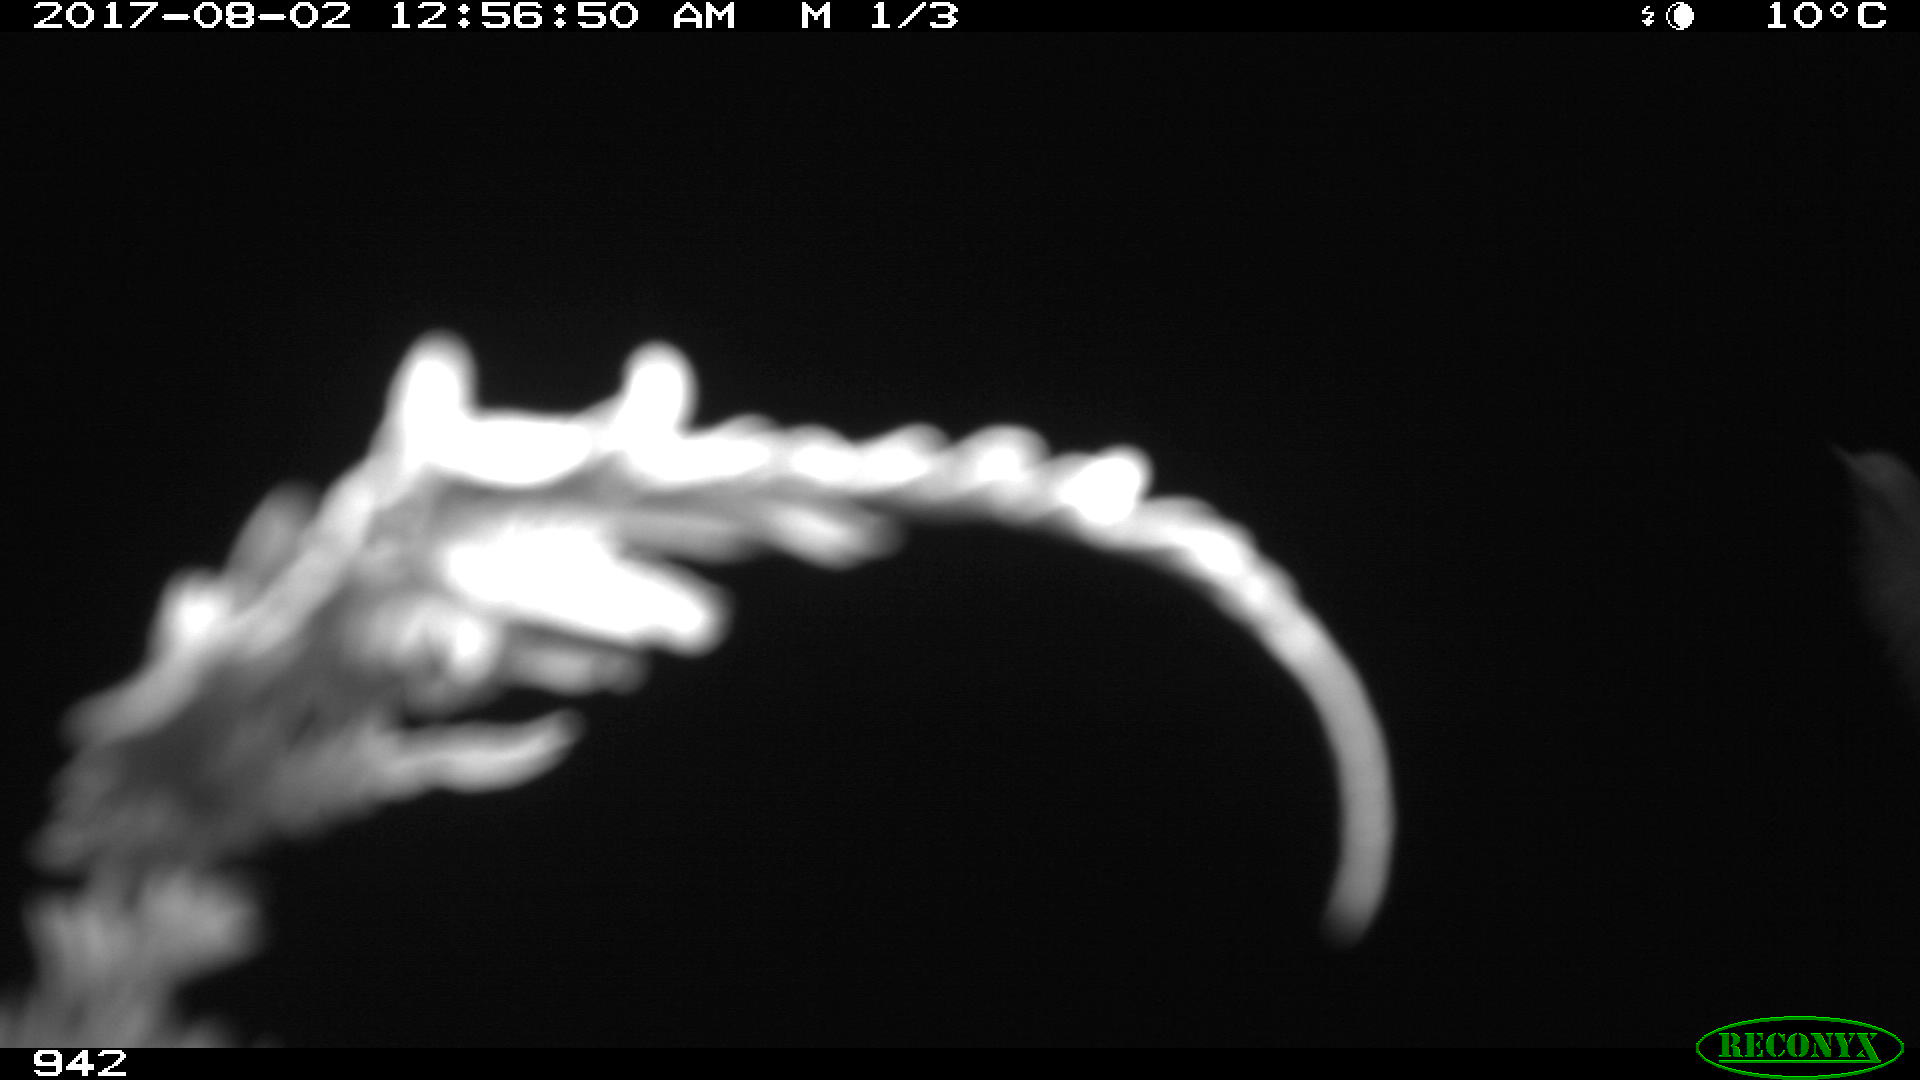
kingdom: Animalia
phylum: Chordata
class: Mammalia
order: Perissodactyla
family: Equidae
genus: Equus
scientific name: Equus caballus
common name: Horse
